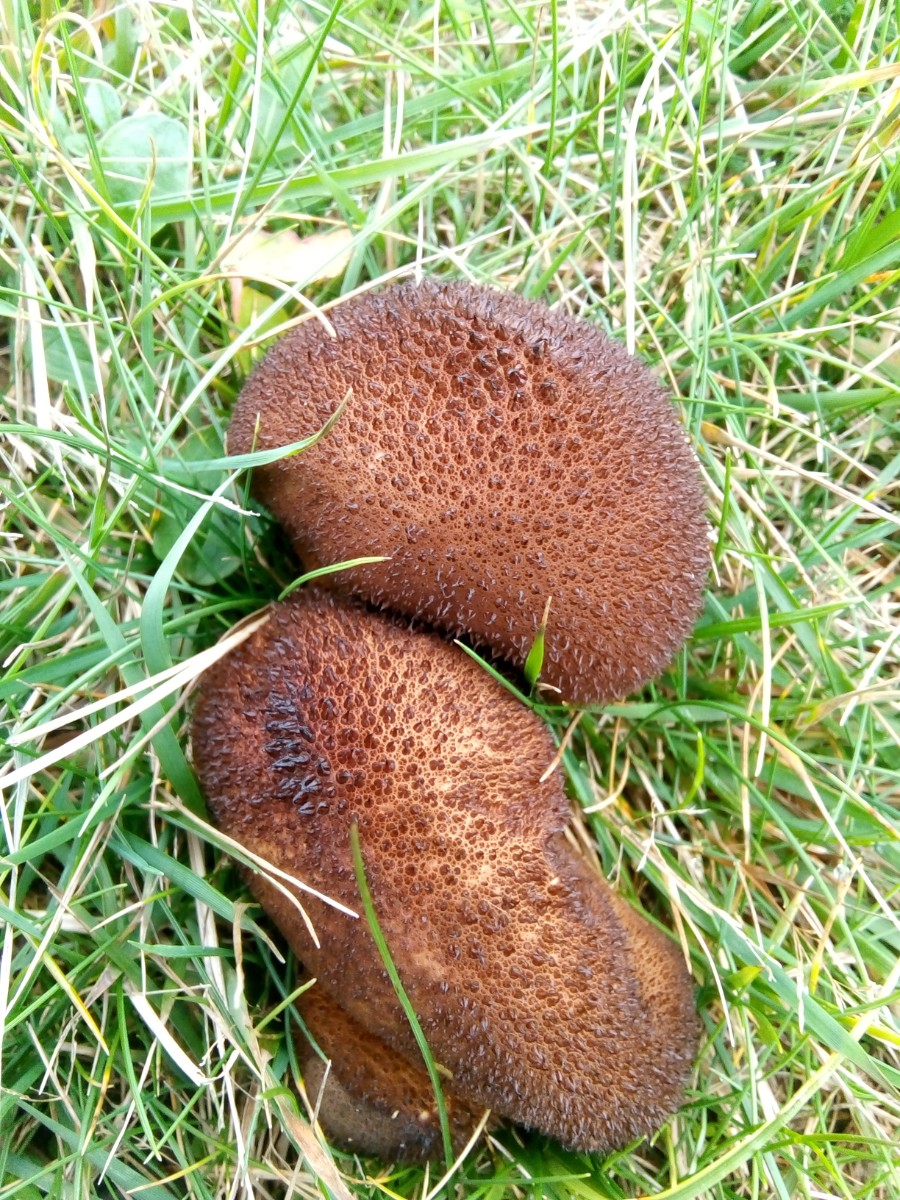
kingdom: Fungi
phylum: Basidiomycota
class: Agaricomycetes
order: Agaricales
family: Lycoperdaceae
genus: Lycoperdon
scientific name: Lycoperdon nigrescens
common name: sortagtig støvbold
